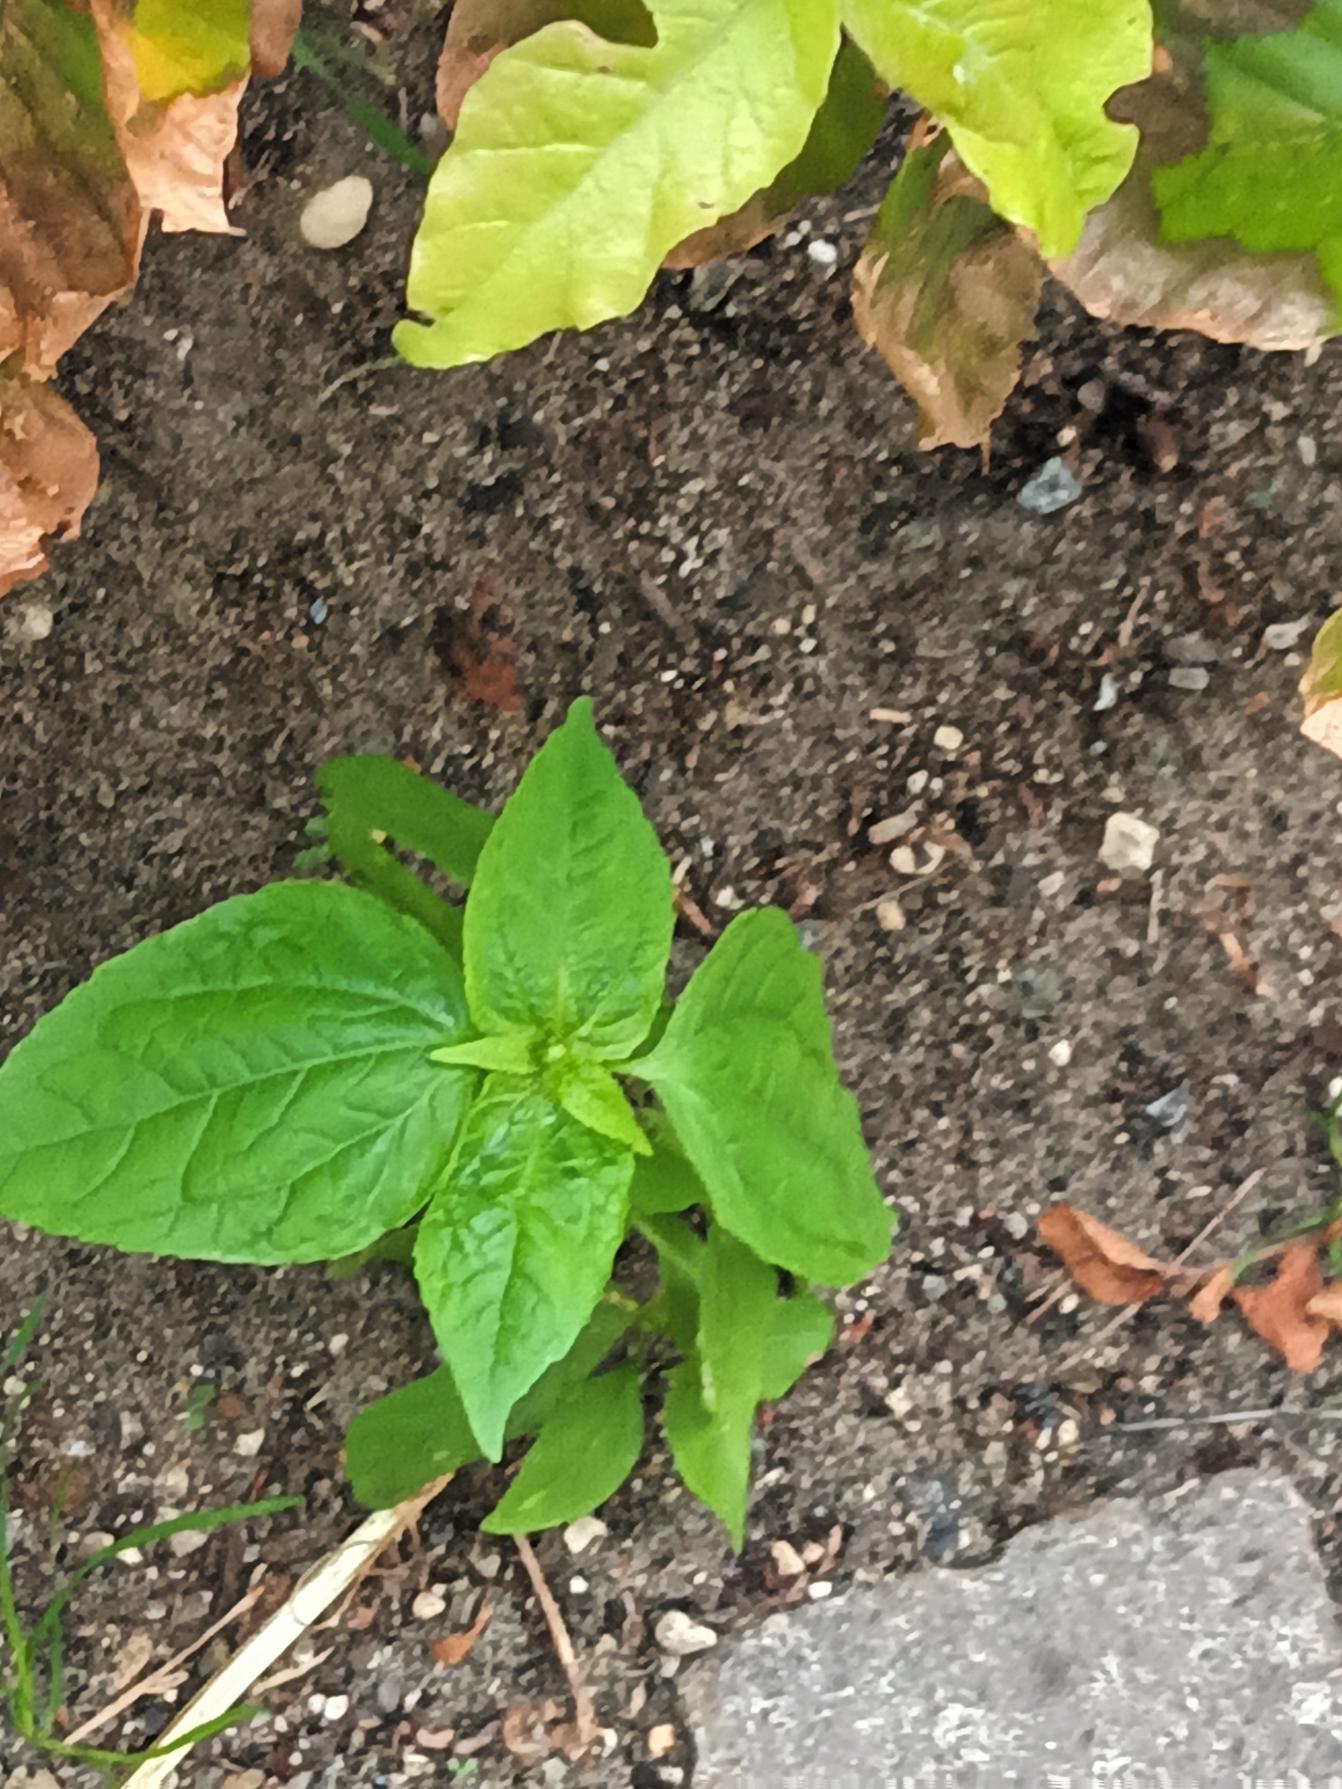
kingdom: Plantae
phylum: Tracheophyta
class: Magnoliopsida
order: Lamiales
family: Lamiaceae
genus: Salvia
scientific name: Salvia hispanica
